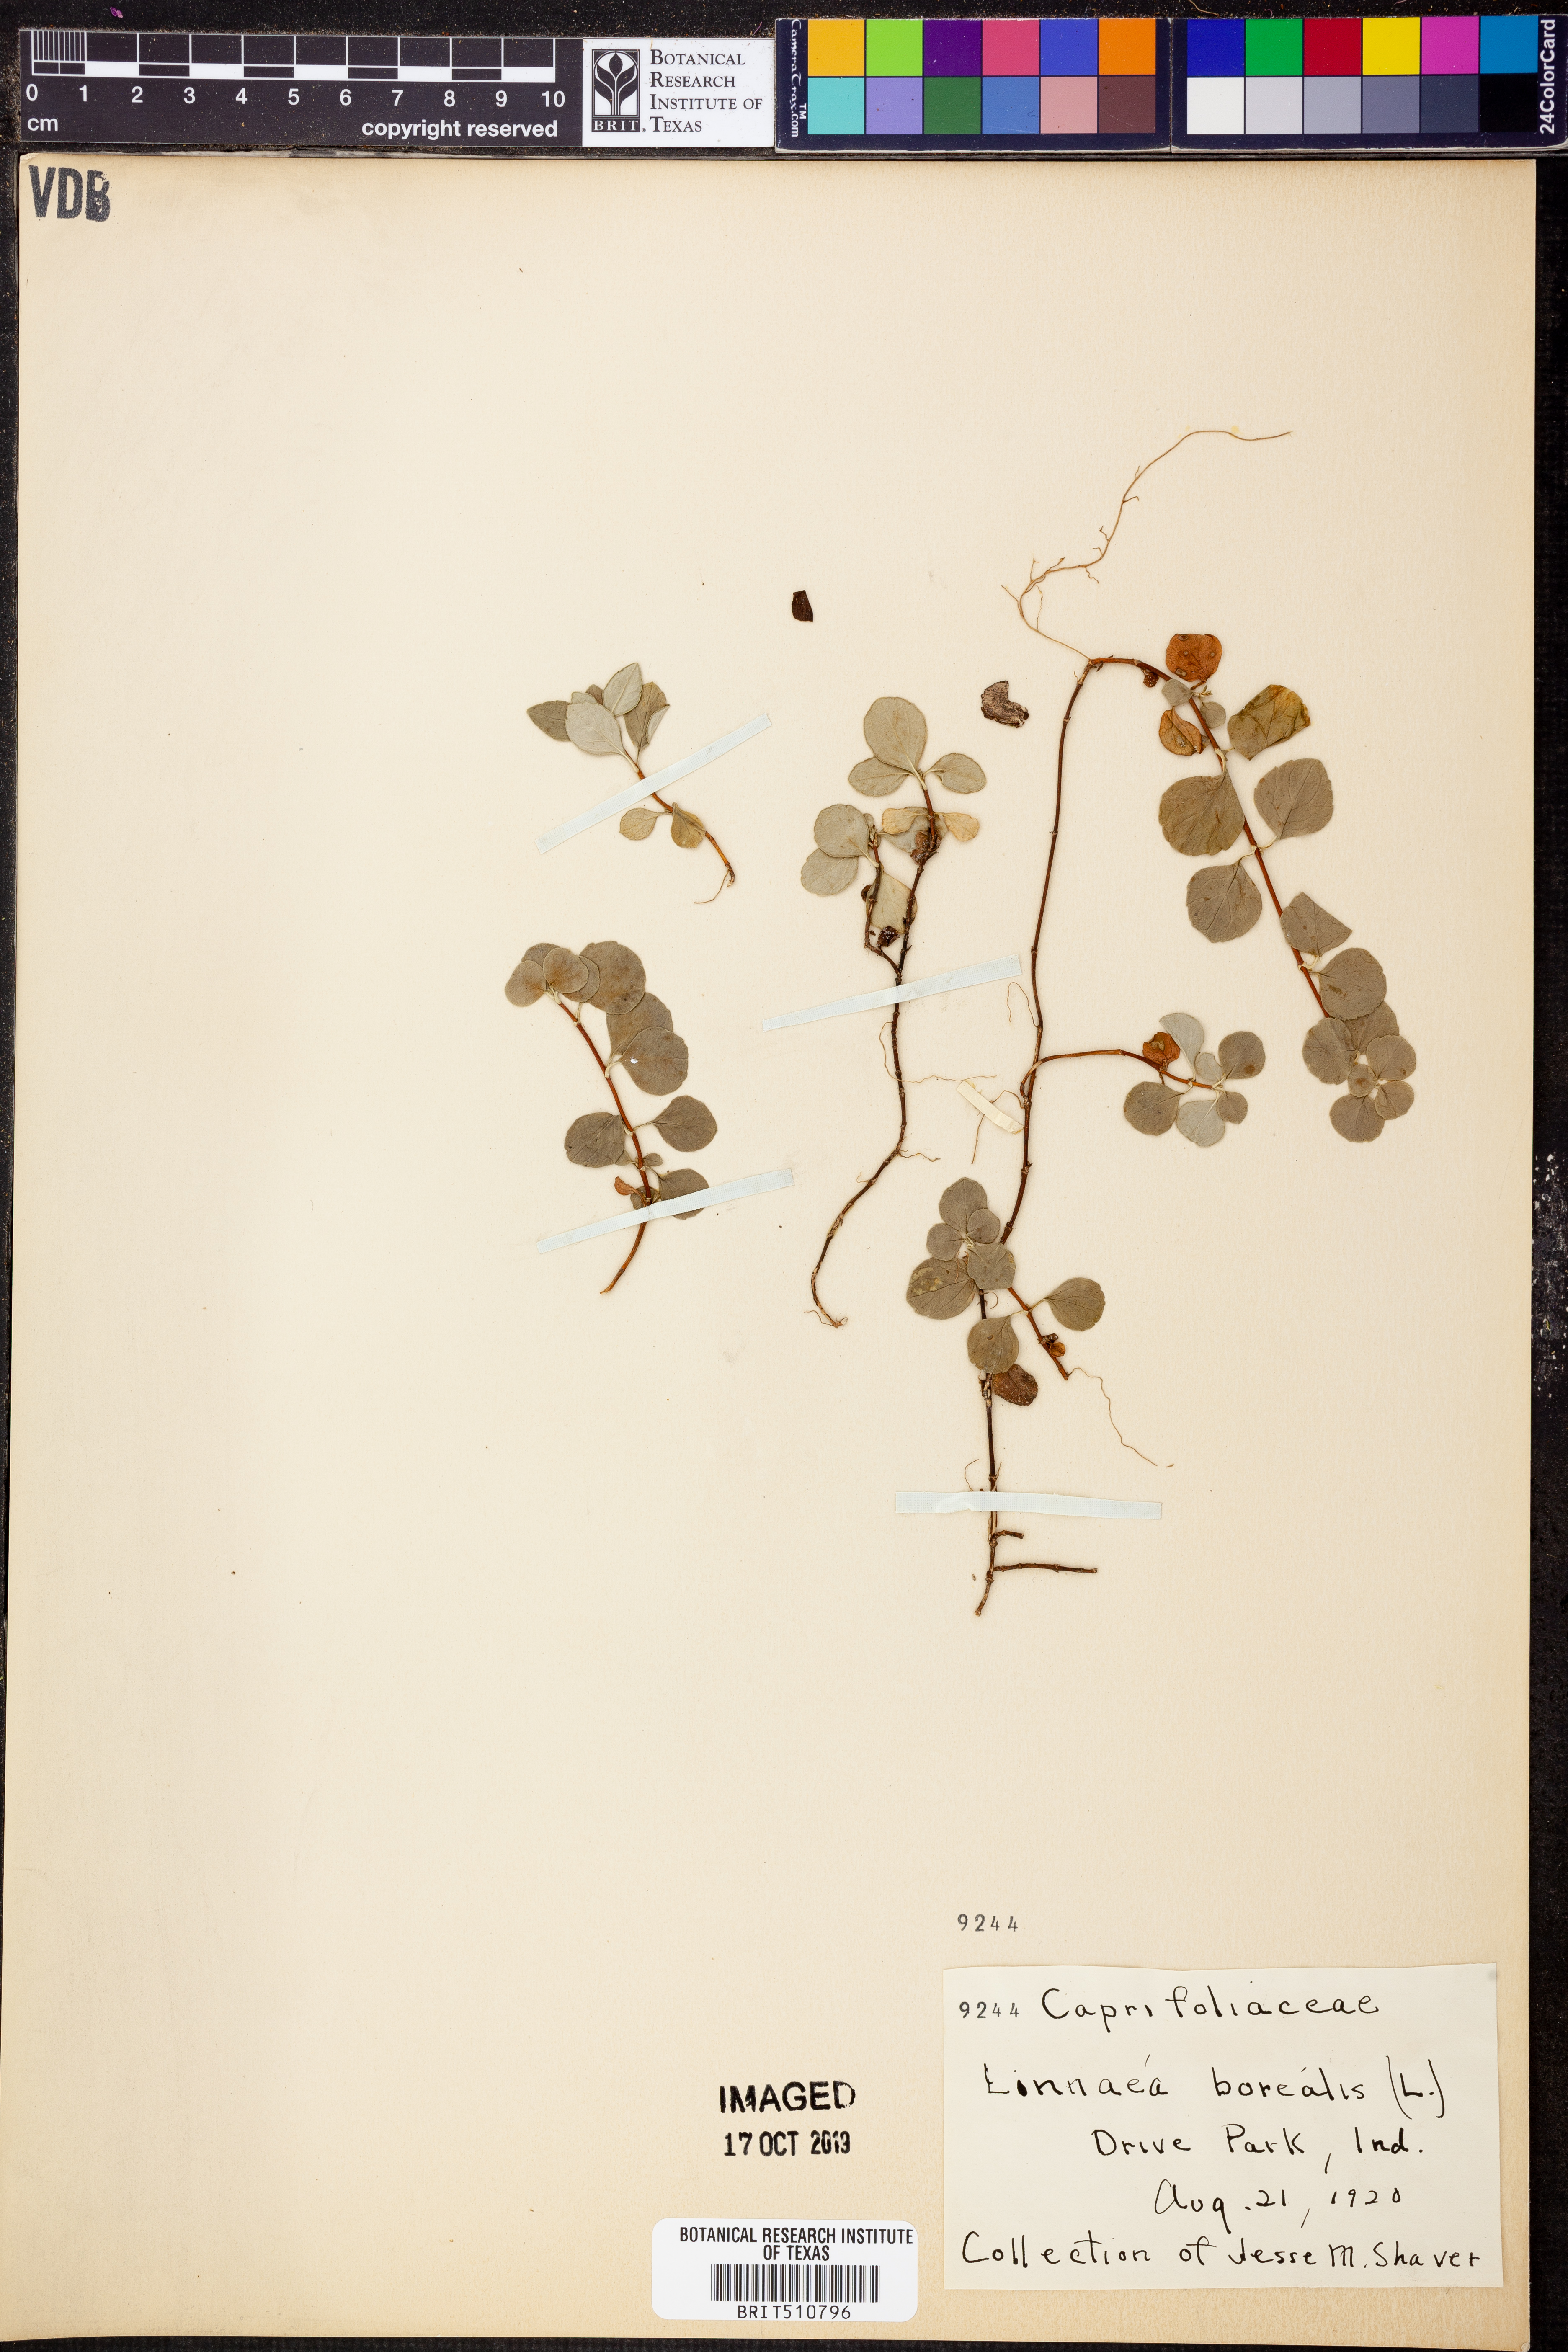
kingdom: Plantae
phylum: Tracheophyta
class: Magnoliopsida
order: Dipsacales
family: Caprifoliaceae
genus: Linnaea
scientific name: Linnaea borealis
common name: Twinflower
